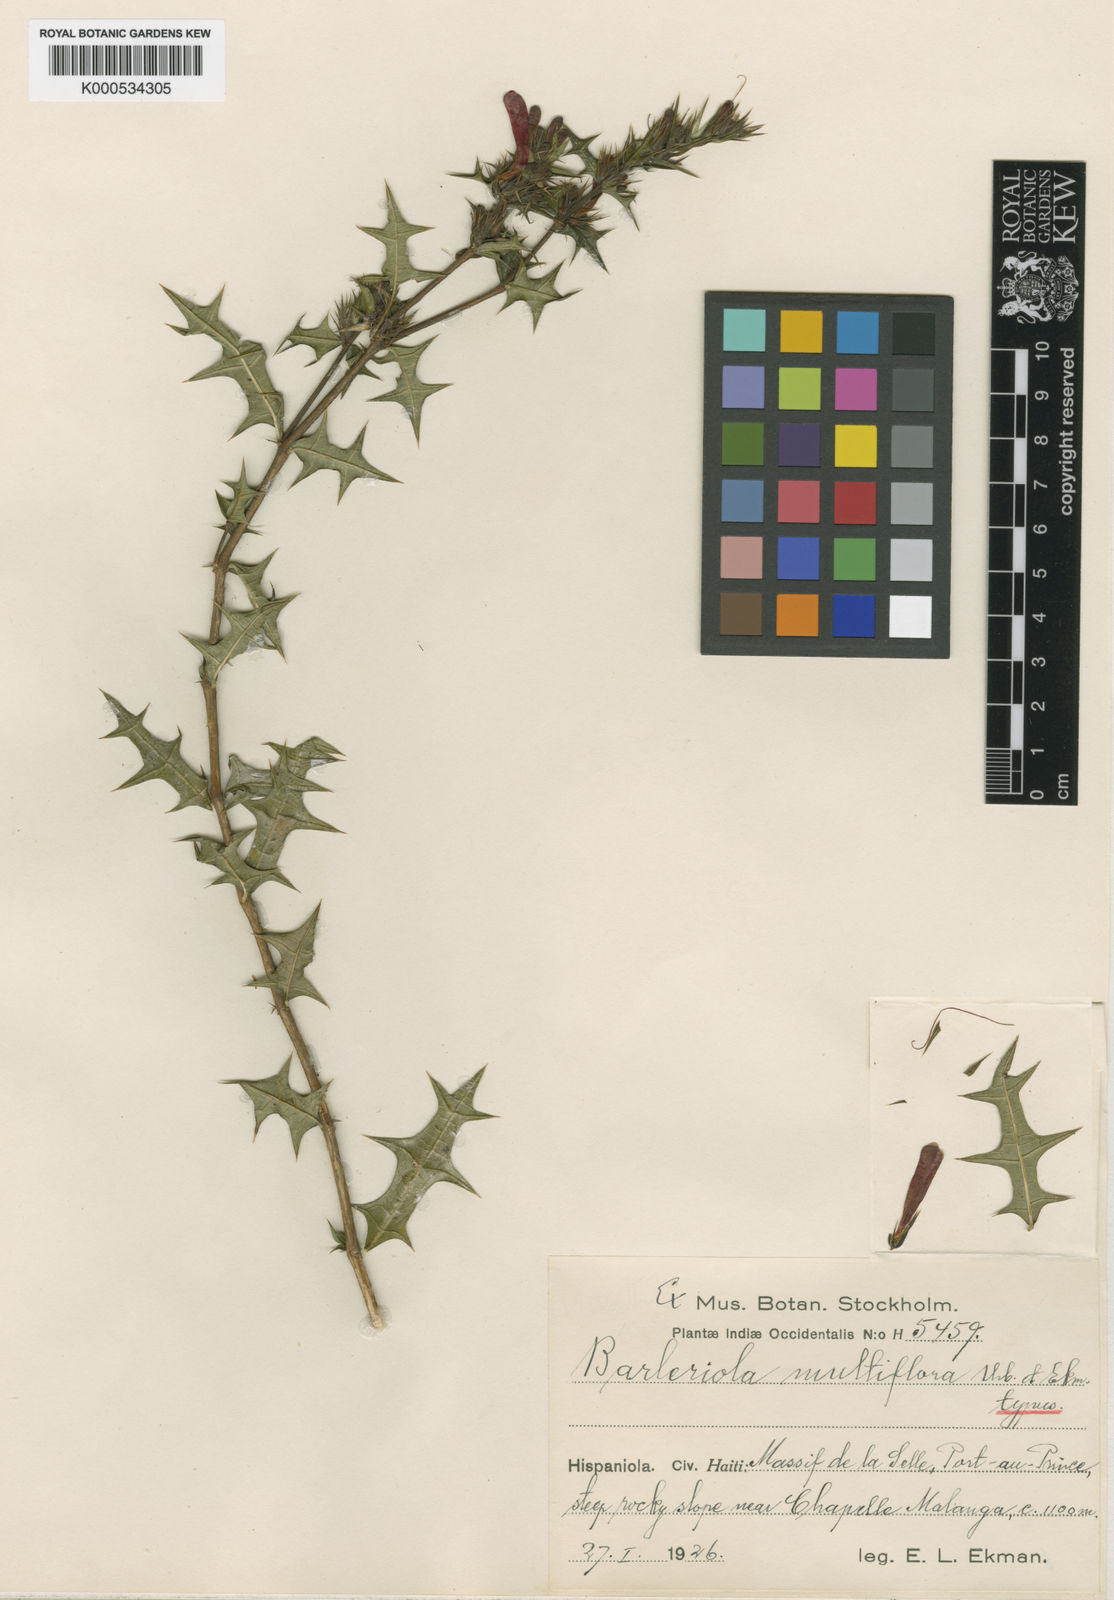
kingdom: Plantae
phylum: Tracheophyta
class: Magnoliopsida
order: Lamiales
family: Acanthaceae
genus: Barleriola
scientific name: Barleriola multiflora
